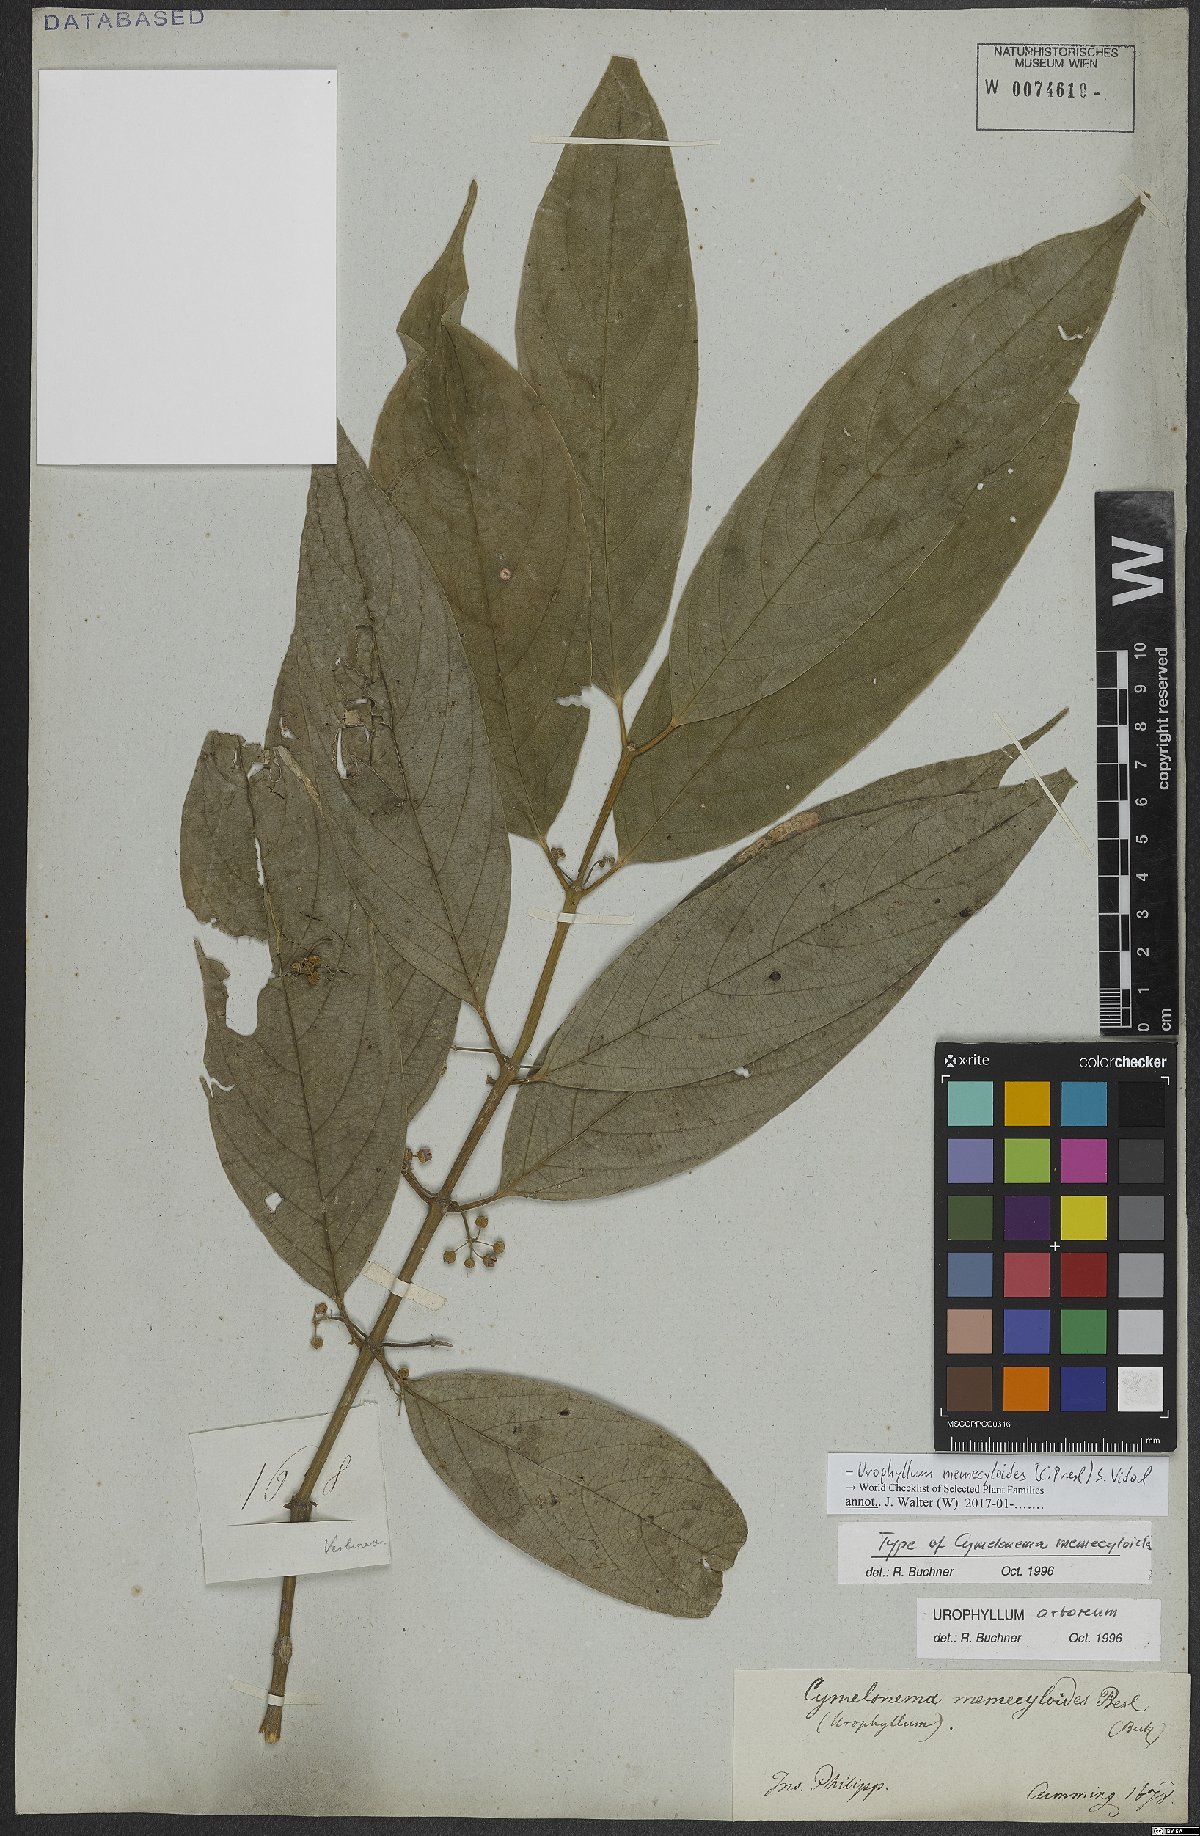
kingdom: Plantae
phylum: Tracheophyta
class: Magnoliopsida
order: Gentianales
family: Rubiaceae
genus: Urophyllum
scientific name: Urophyllum memecyloides
